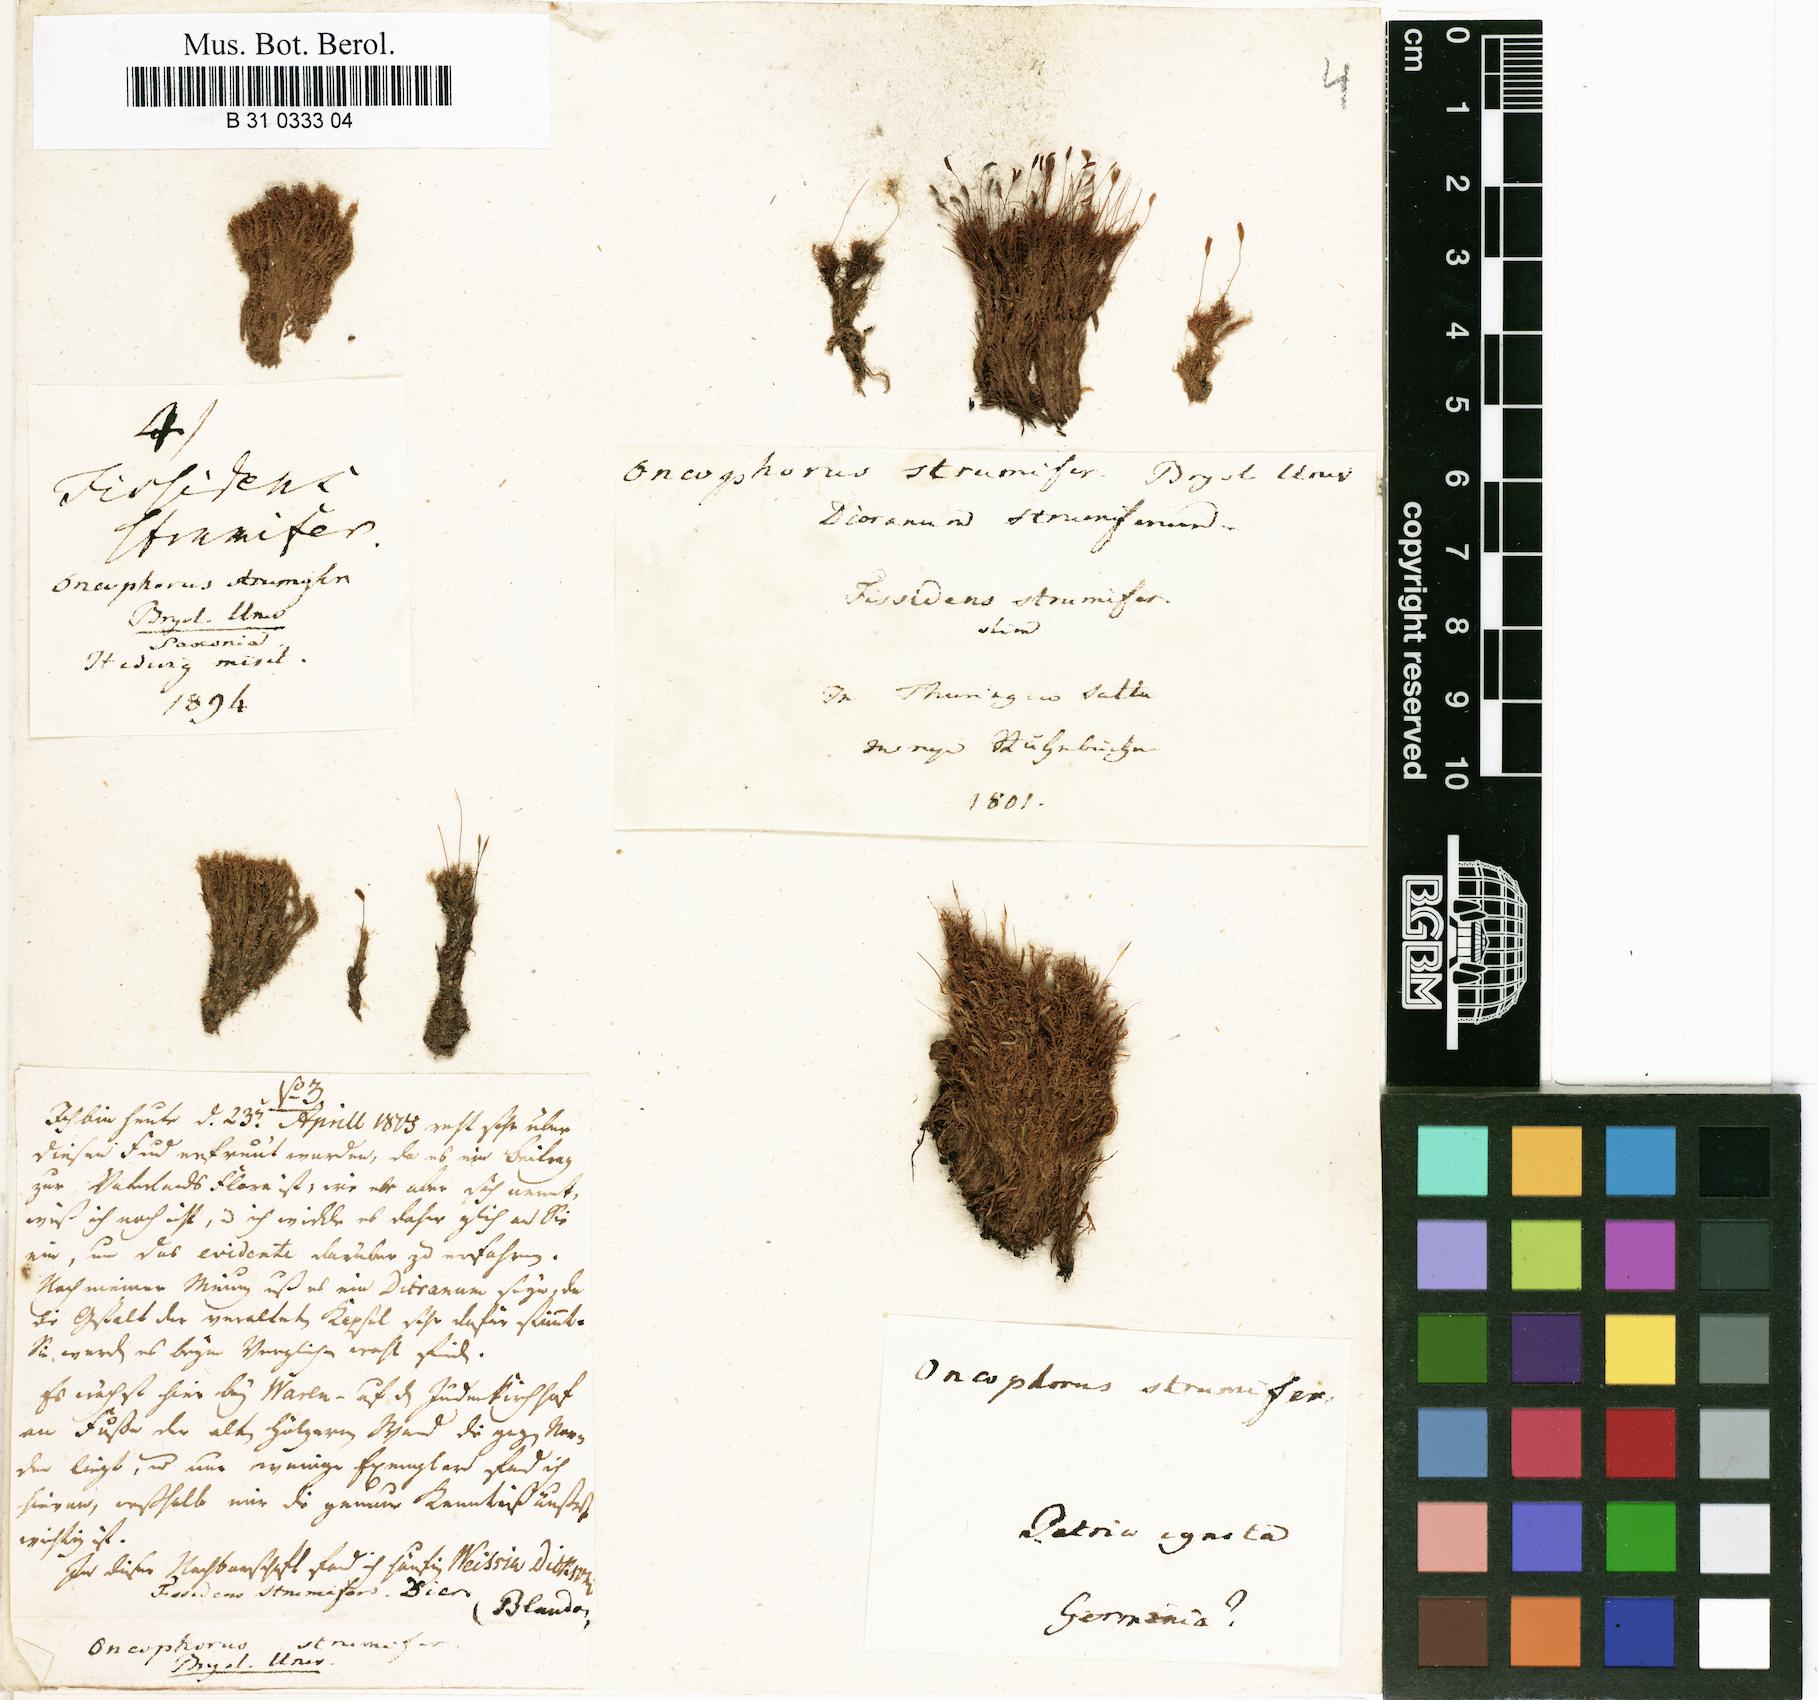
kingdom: Plantae
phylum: Bryophyta
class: Bryopsida
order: Dicranales
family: Rhabdoweisiaceae
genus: Cynodontium
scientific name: Cynodontium strumiferum
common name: Swollen dogtooth moss
